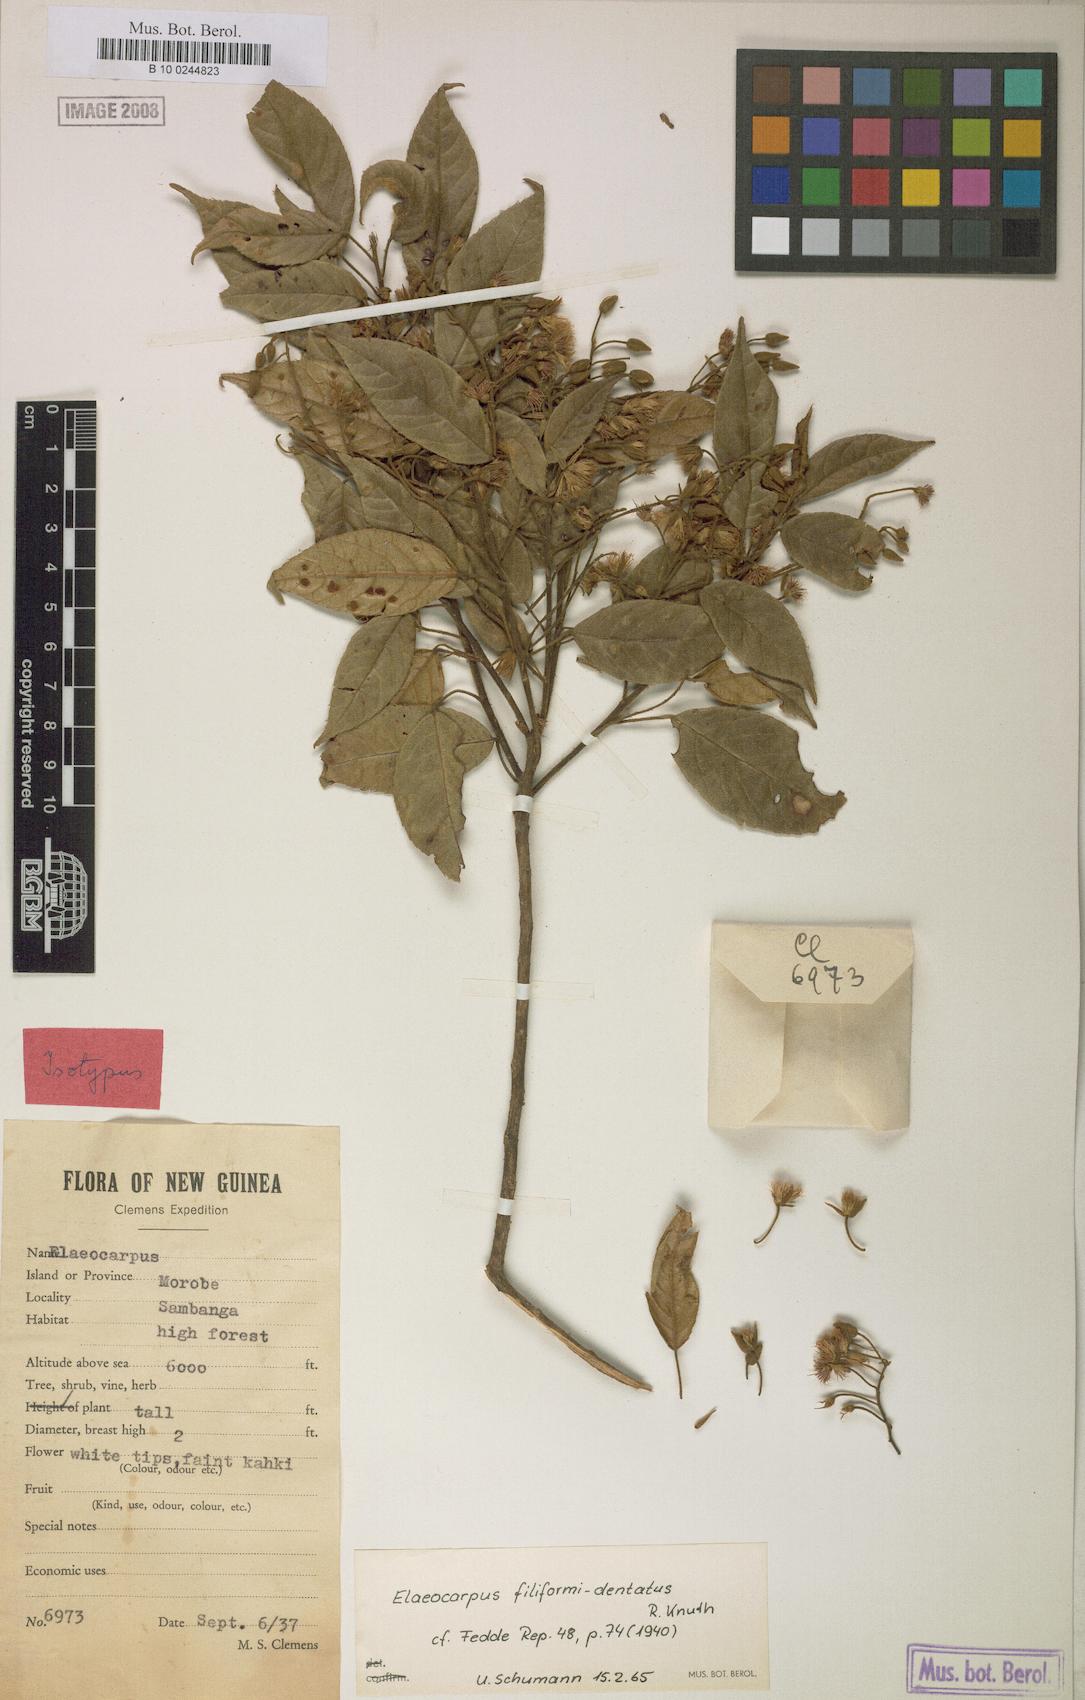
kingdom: Plantae
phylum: Tracheophyta
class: Magnoliopsida
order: Oxalidales
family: Elaeocarpaceae
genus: Elaeocarpus
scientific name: Elaeocarpus filiformidentatus
